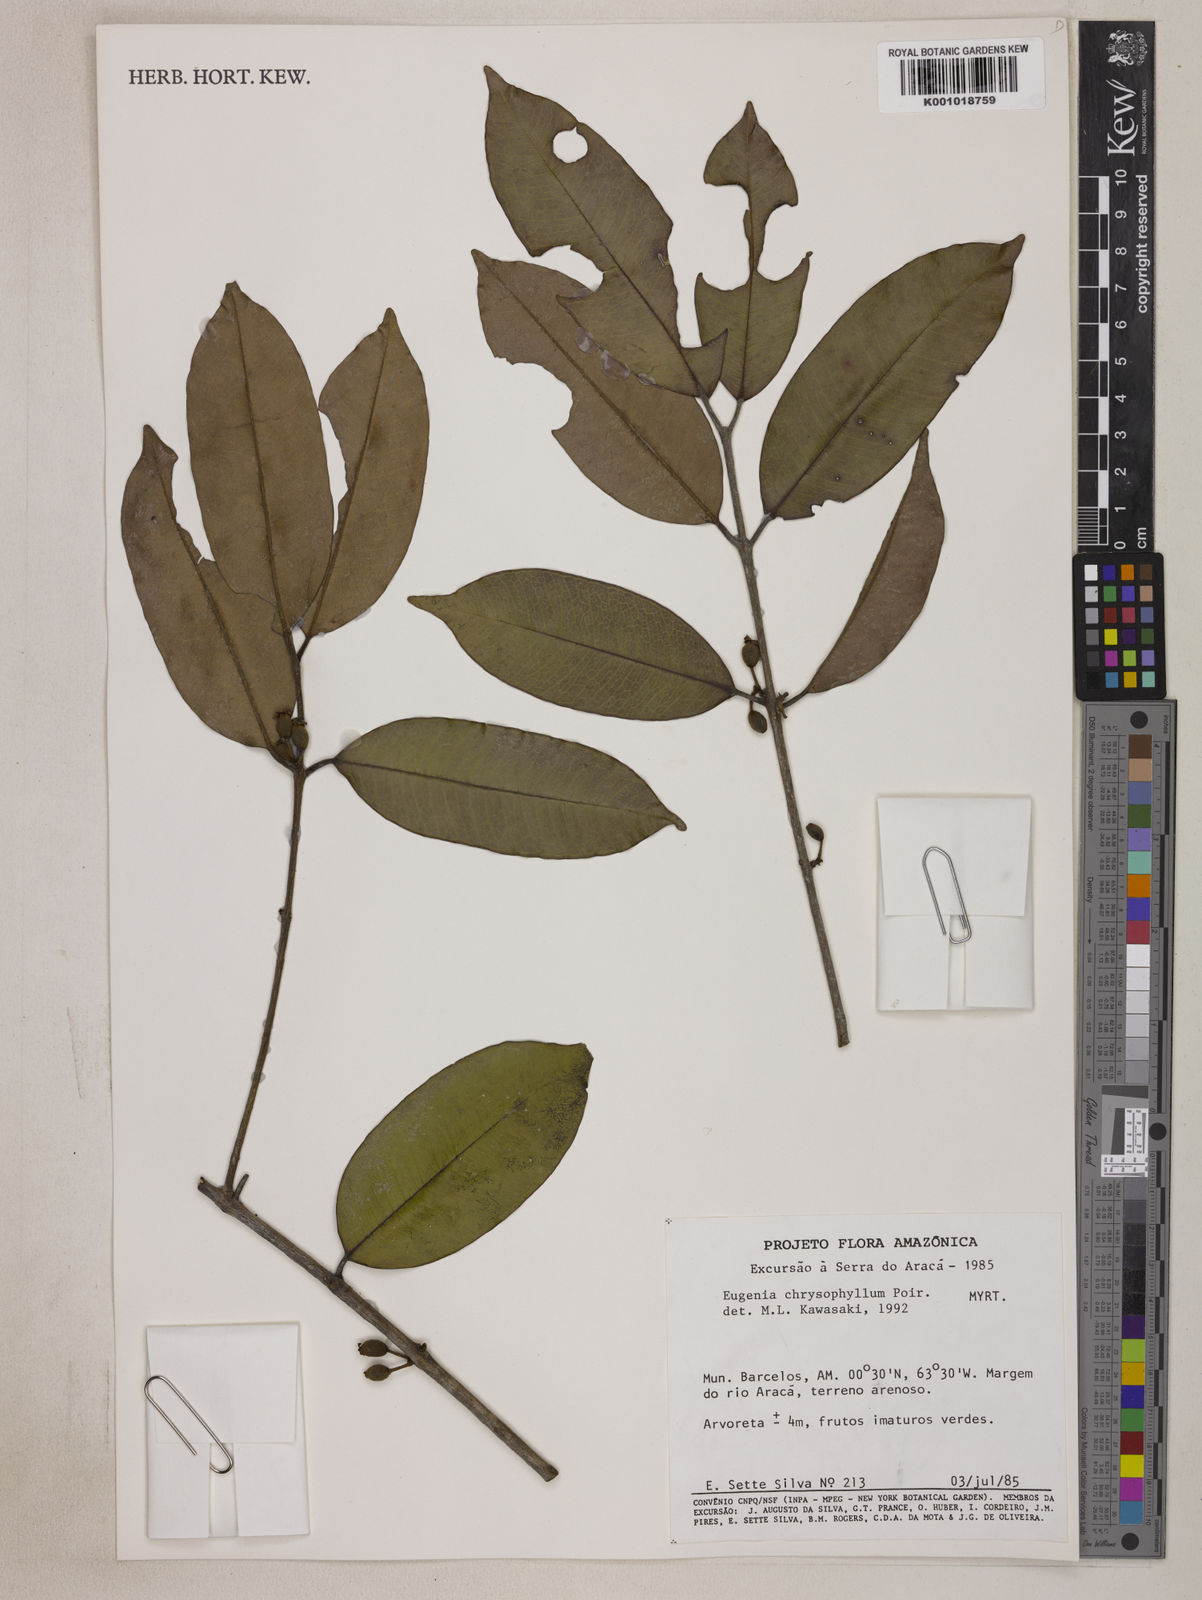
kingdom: Plantae
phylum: Tracheophyta
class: Magnoliopsida
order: Myrtales
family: Myrtaceae
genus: Eugenia
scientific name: Eugenia chrysophyllum
